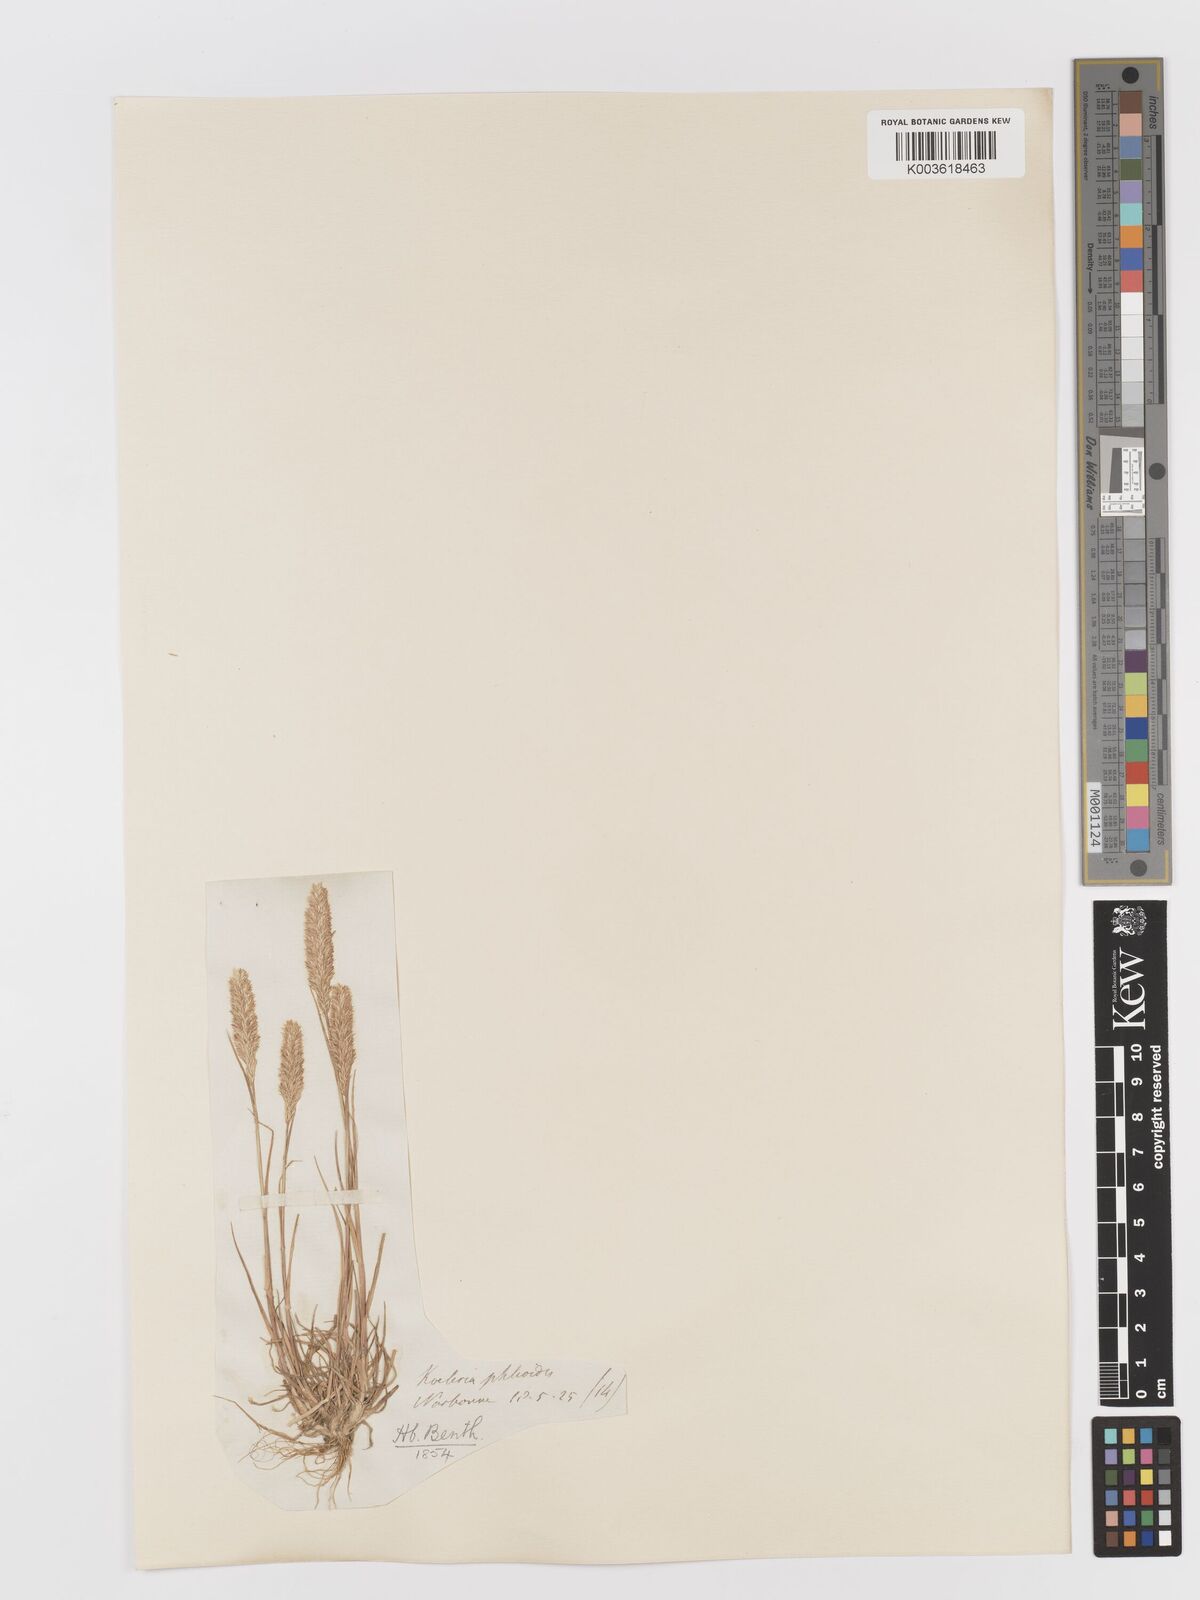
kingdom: Plantae
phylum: Tracheophyta
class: Liliopsida
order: Poales
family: Poaceae
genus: Rostraria
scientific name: Rostraria cristata
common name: Mediterranean hair-grass
